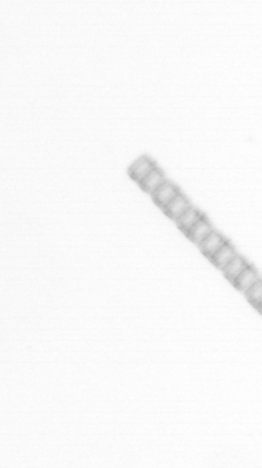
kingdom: Chromista
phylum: Ochrophyta
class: Bacillariophyceae
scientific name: Bacillariophyceae
